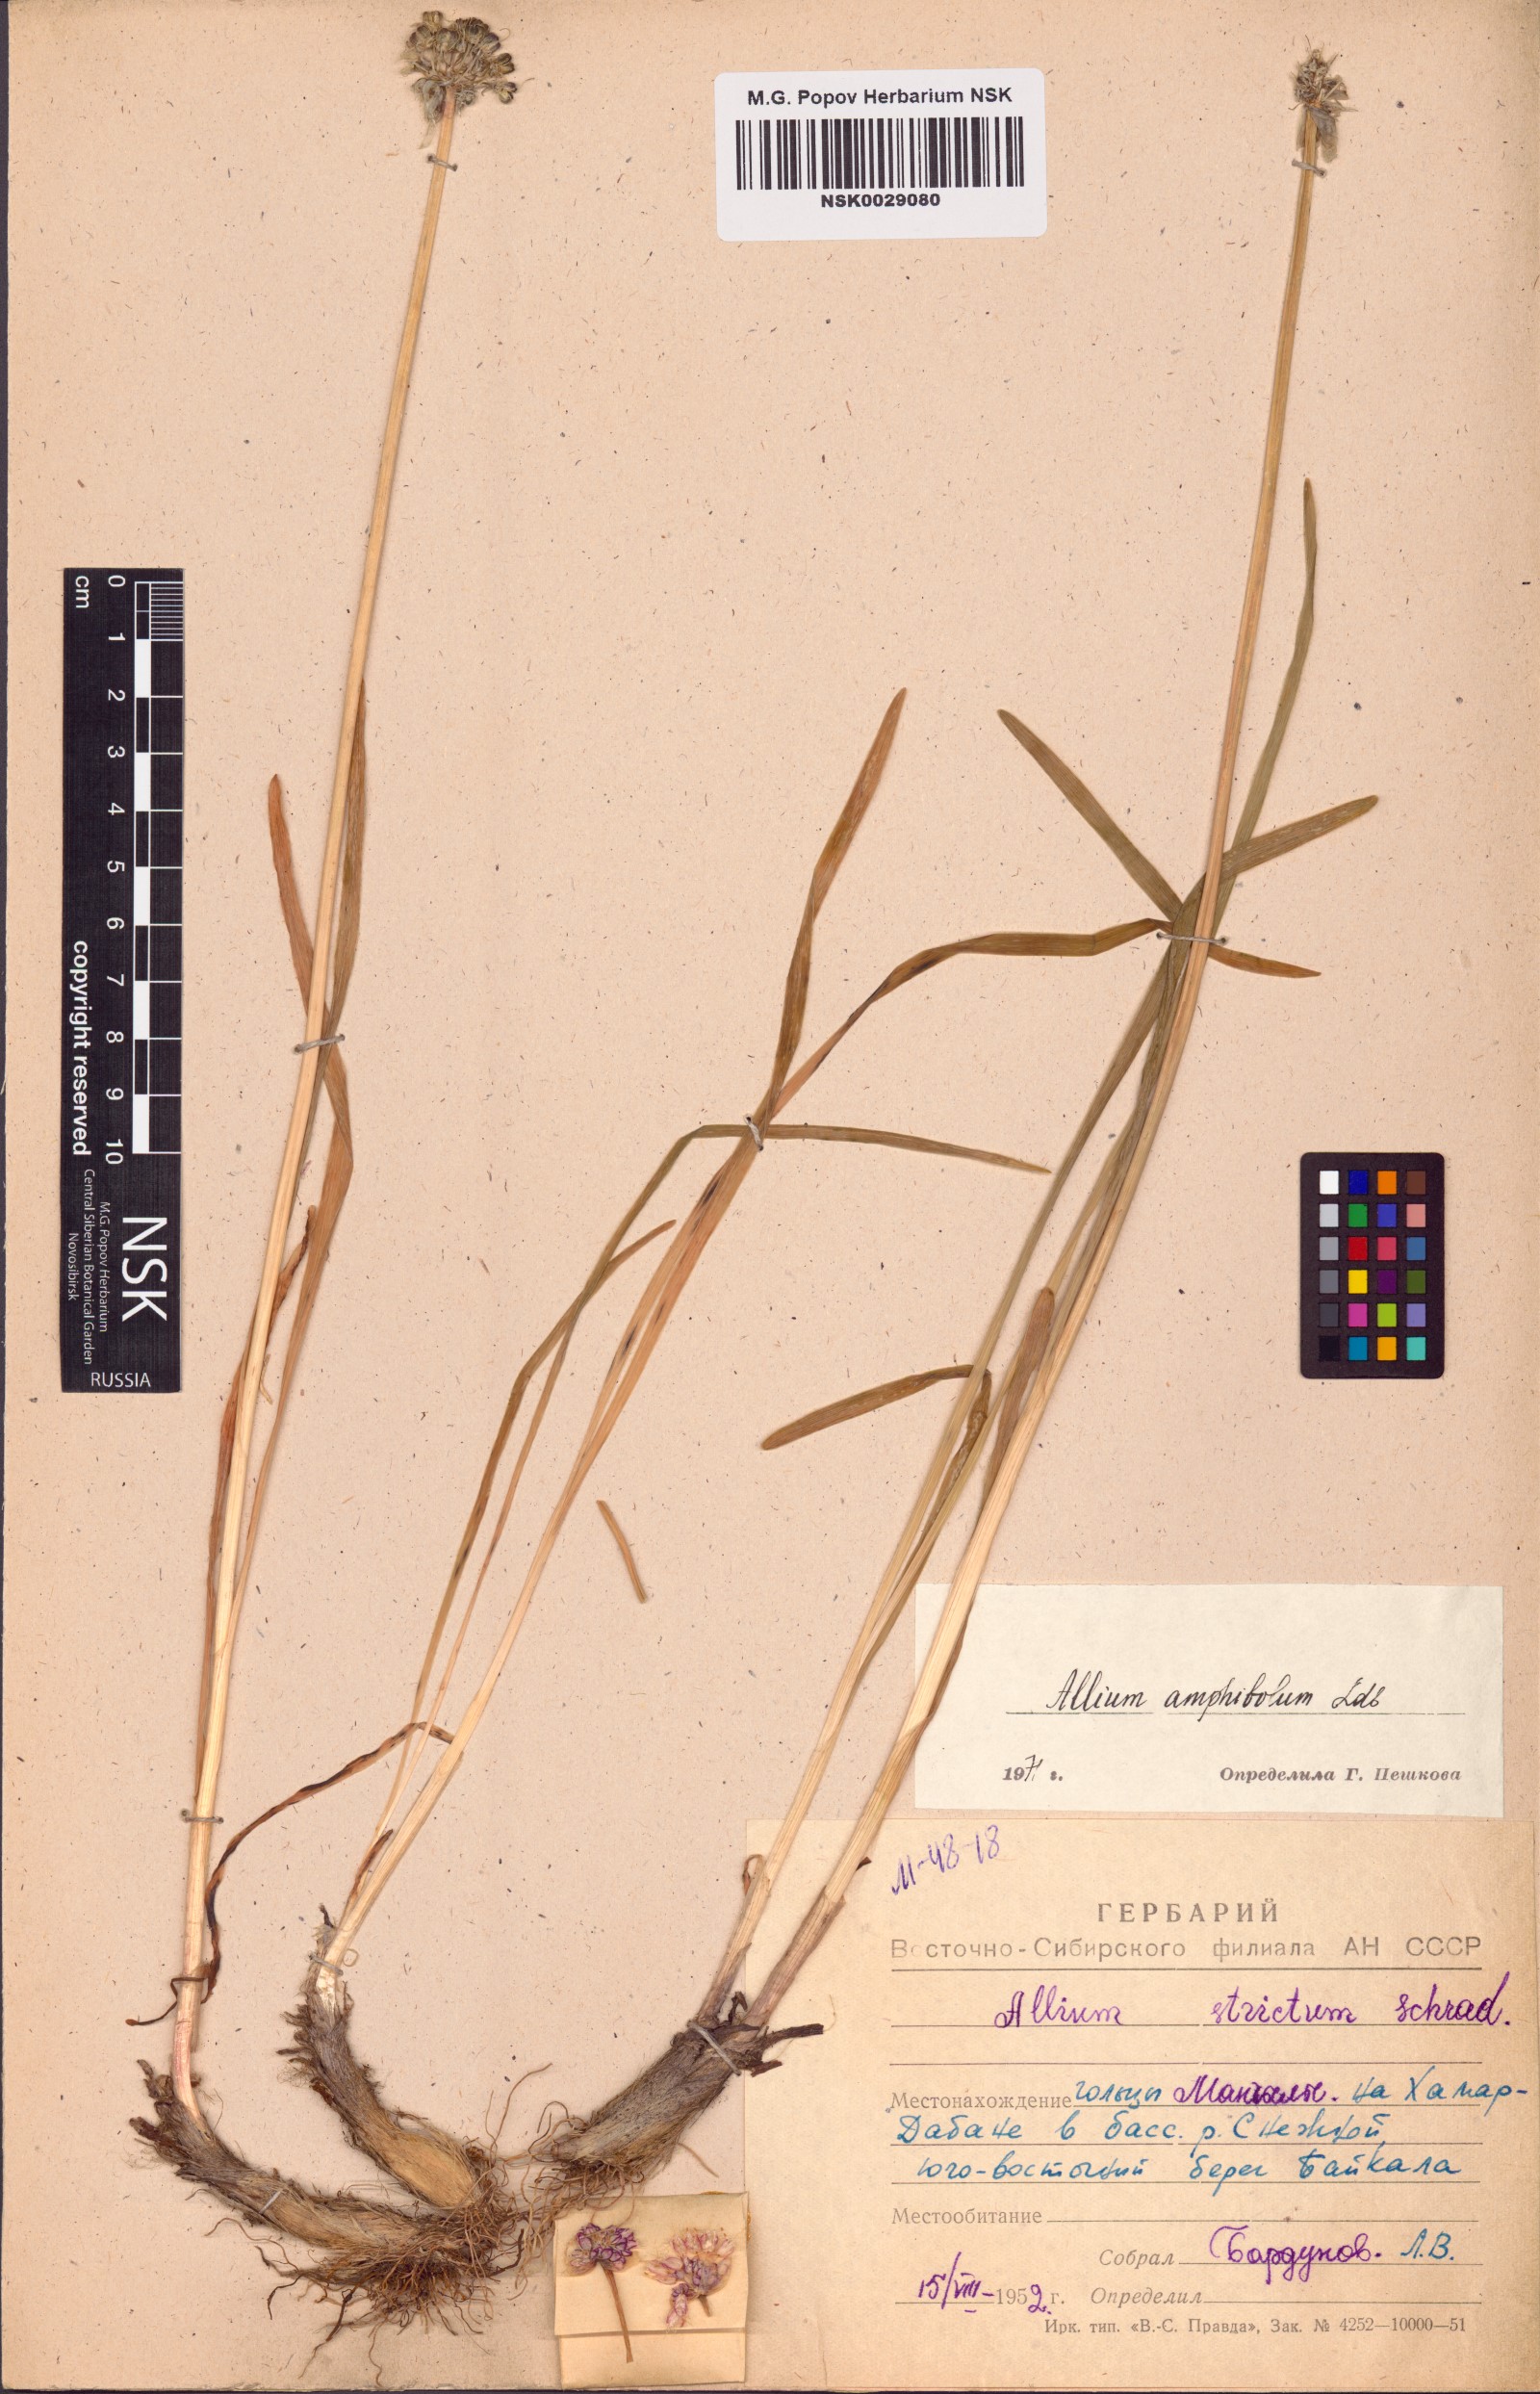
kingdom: Plantae
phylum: Tracheophyta
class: Liliopsida
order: Asparagales
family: Amaryllidaceae
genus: Allium
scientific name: Allium amphibolum
